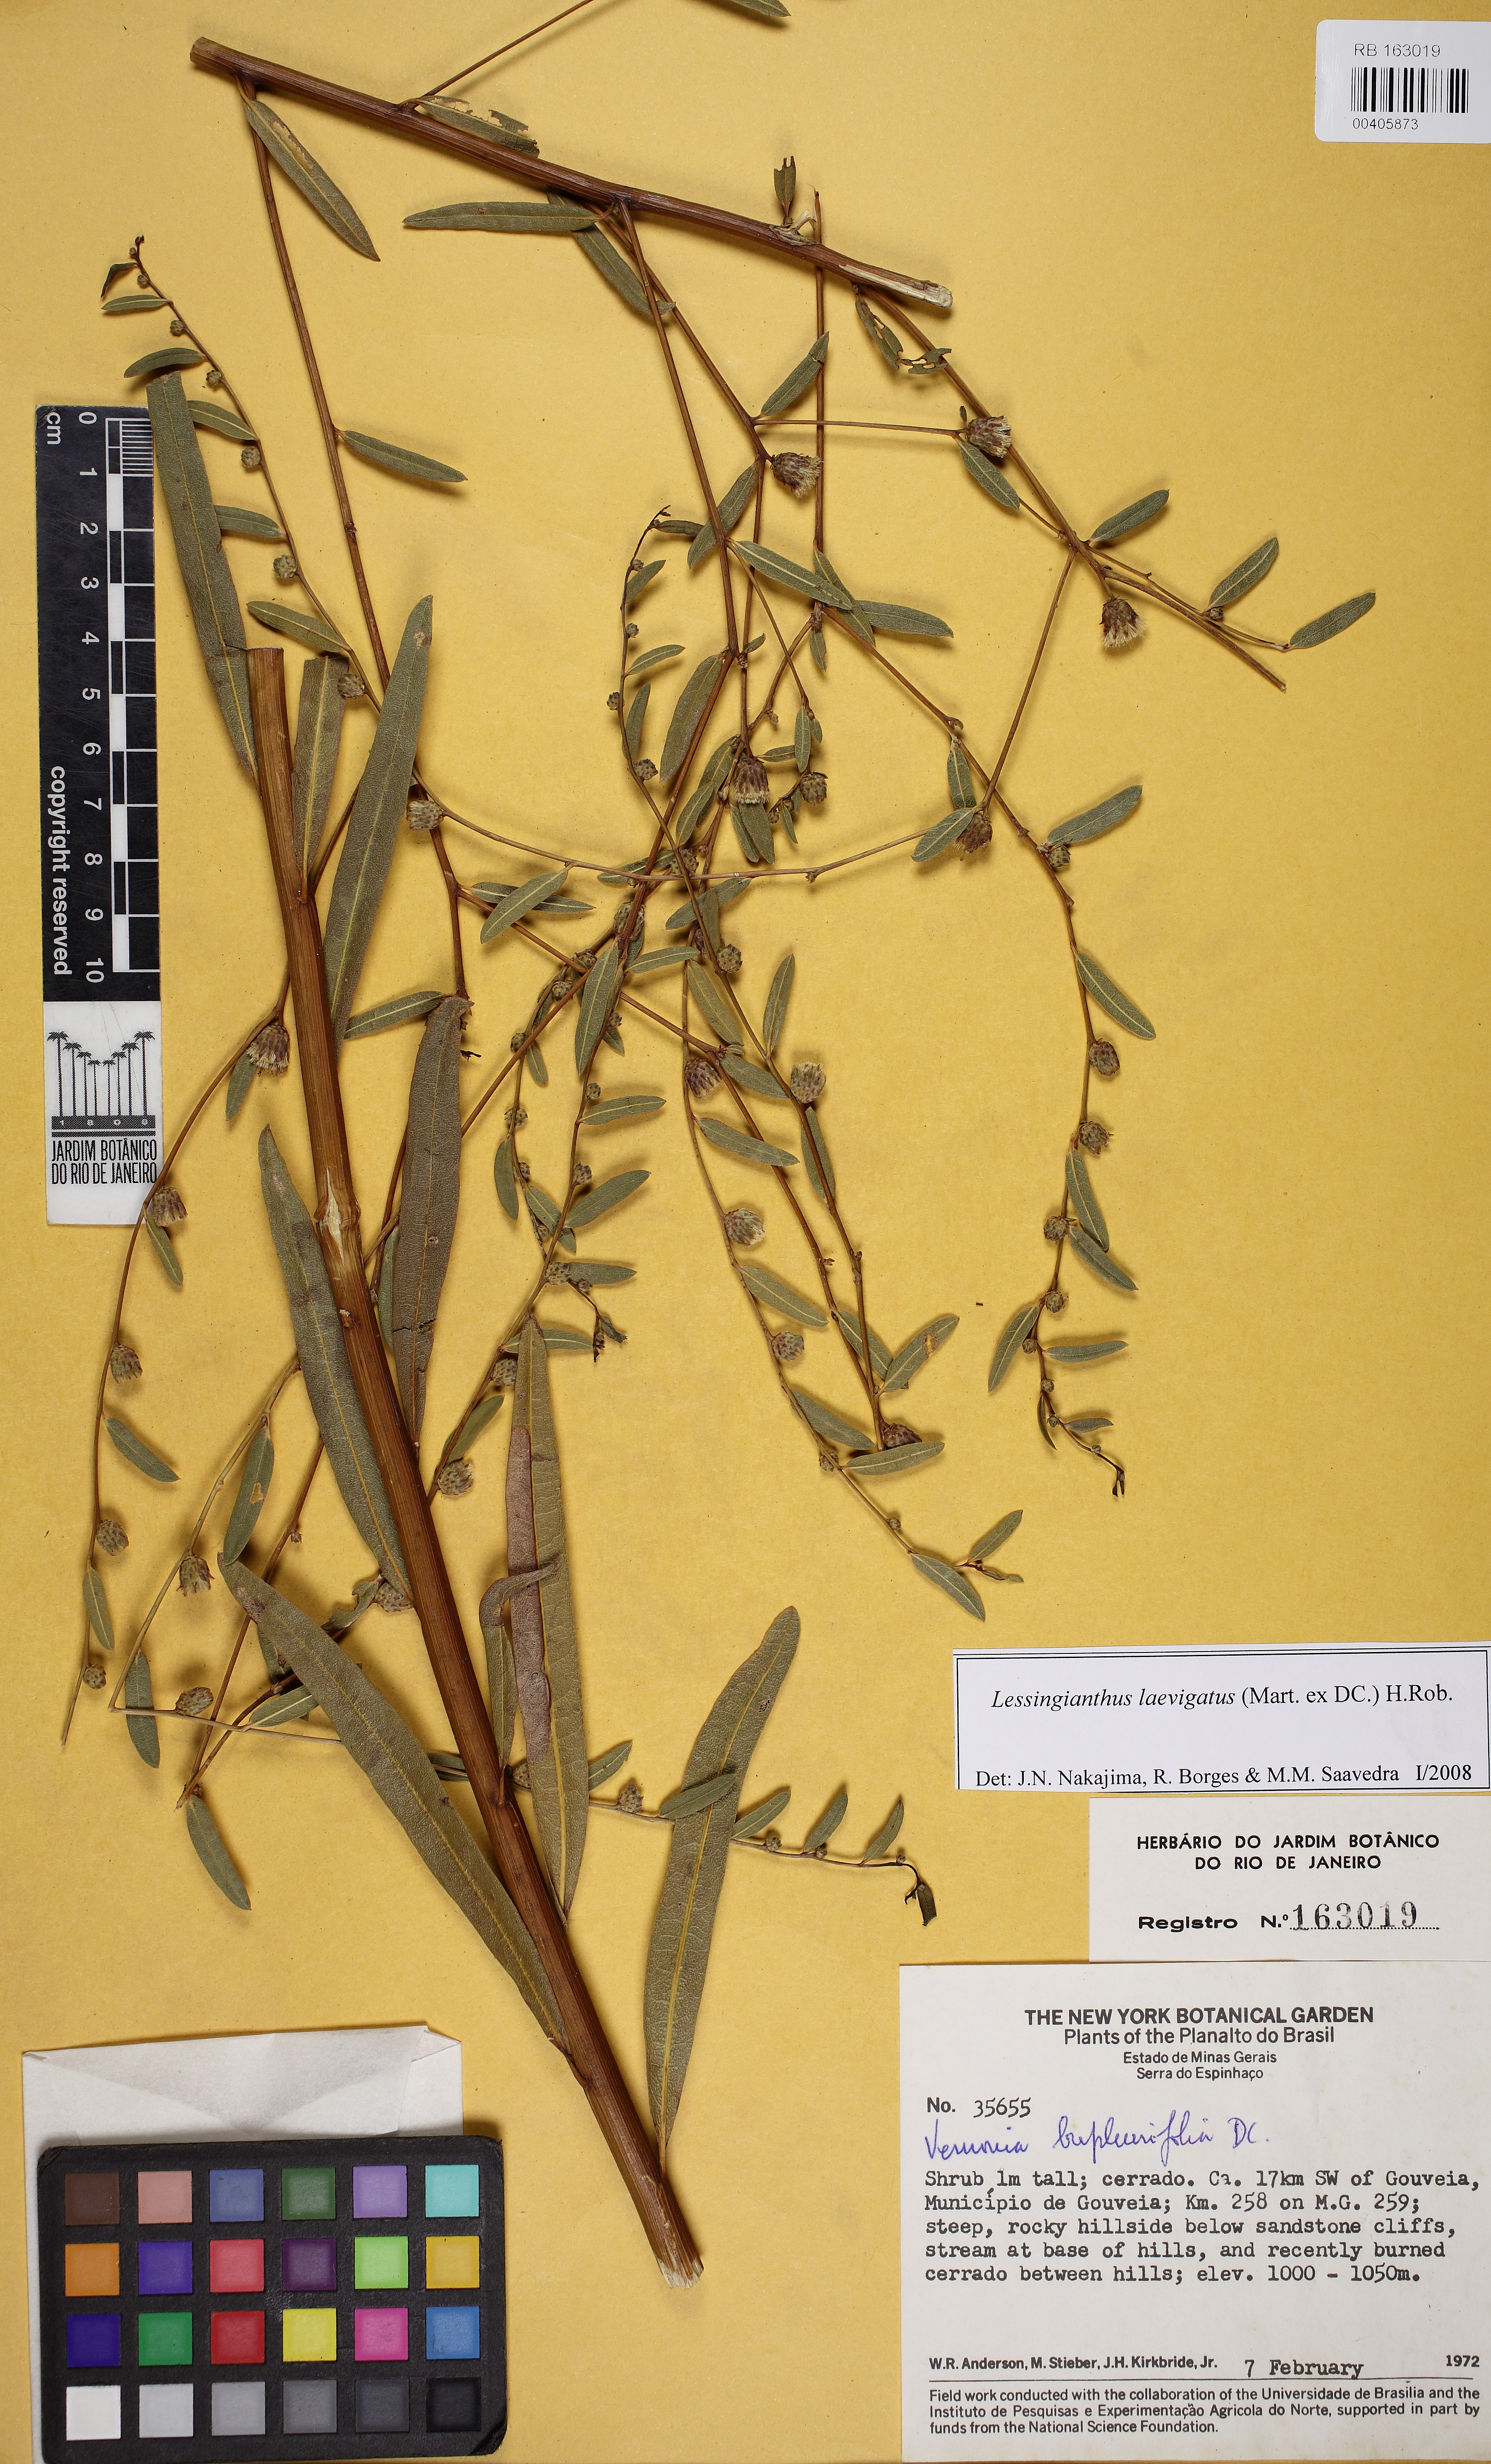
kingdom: Plantae
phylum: Tracheophyta
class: Magnoliopsida
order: Asterales
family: Asteraceae
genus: Lessingianthus
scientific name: Lessingianthus bupleurifolius
